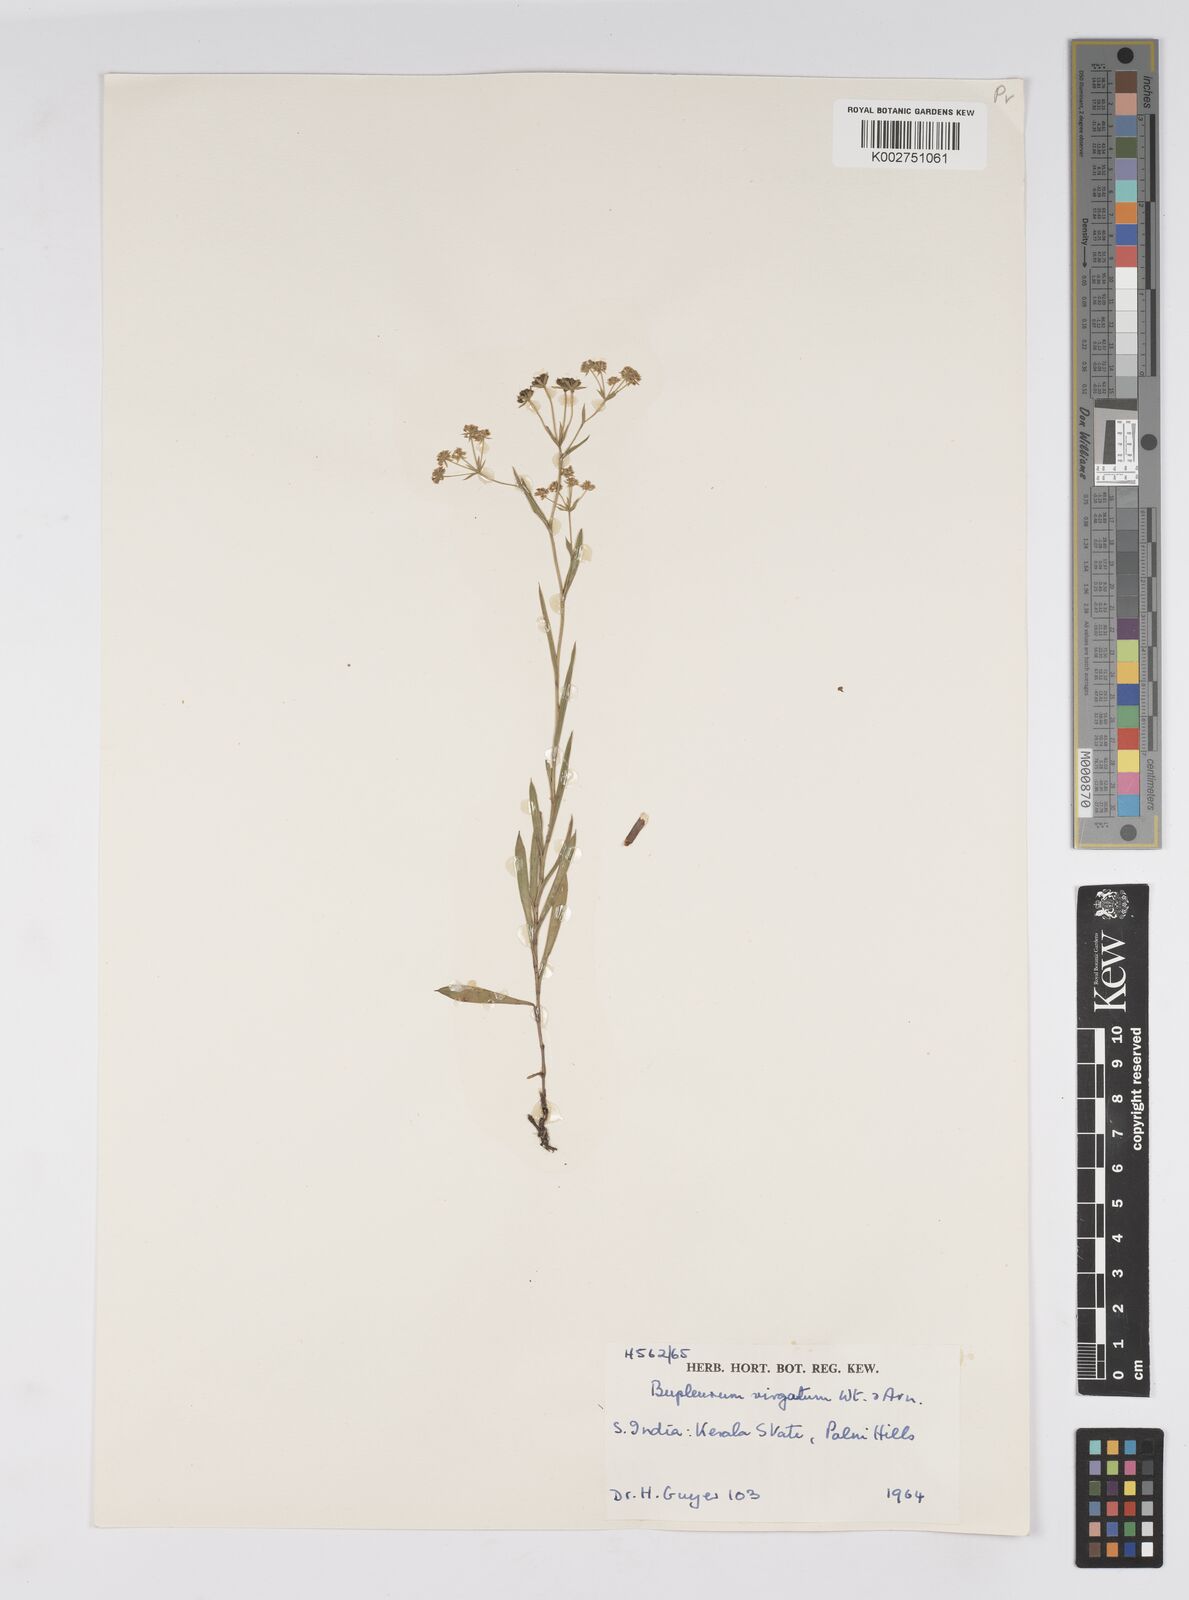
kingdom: Plantae
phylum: Tracheophyta
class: Magnoliopsida
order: Apiales
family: Apiaceae
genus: Bupleurum
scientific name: Bupleurum
